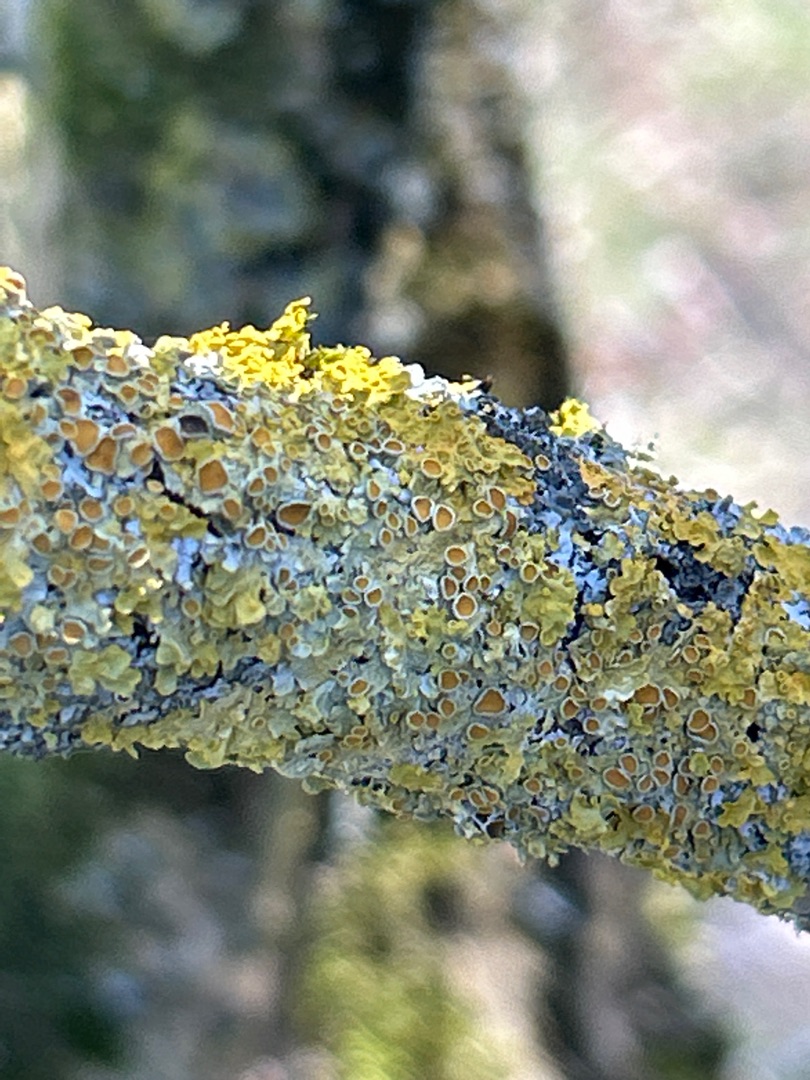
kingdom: Fungi
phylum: Ascomycota
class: Lecanoromycetes
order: Teloschistales
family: Teloschistaceae
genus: Xanthoria
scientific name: Xanthoria parietina
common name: Almindelig væggelav
